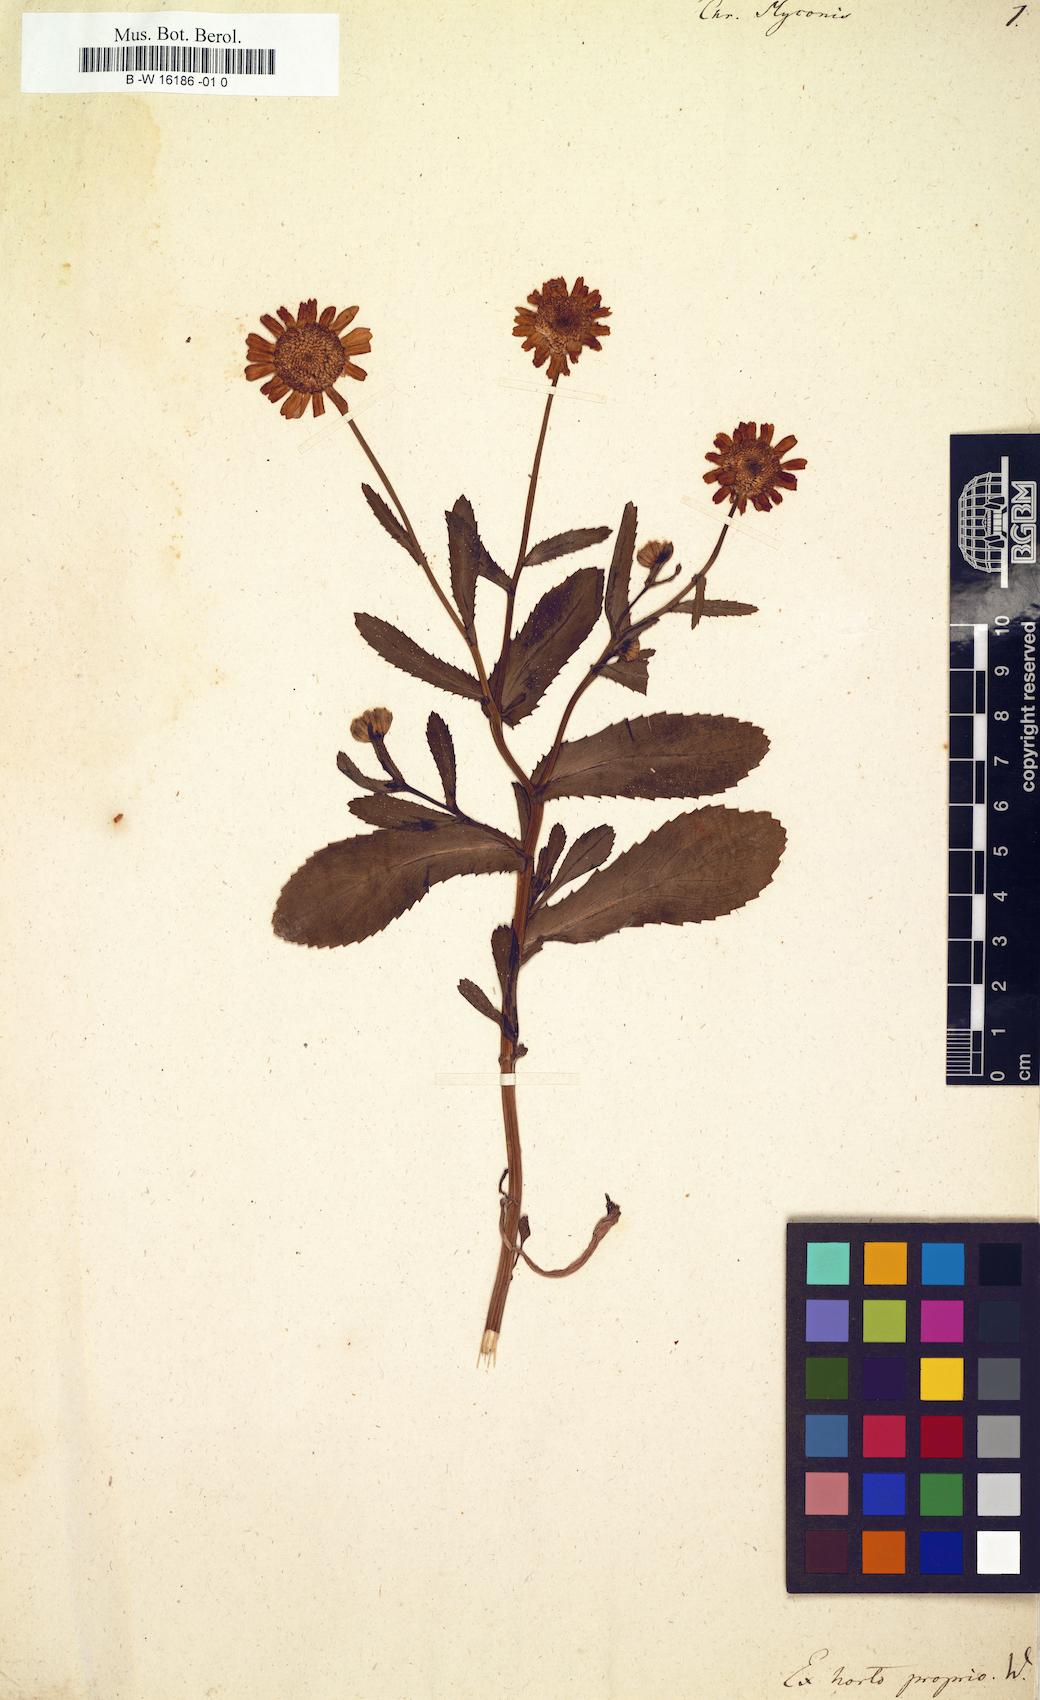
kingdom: Plantae
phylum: Tracheophyta
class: Magnoliopsida
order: Asterales
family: Asteraceae
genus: Coleostephus
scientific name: Coleostephus myconis
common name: Mediterranean marigold
